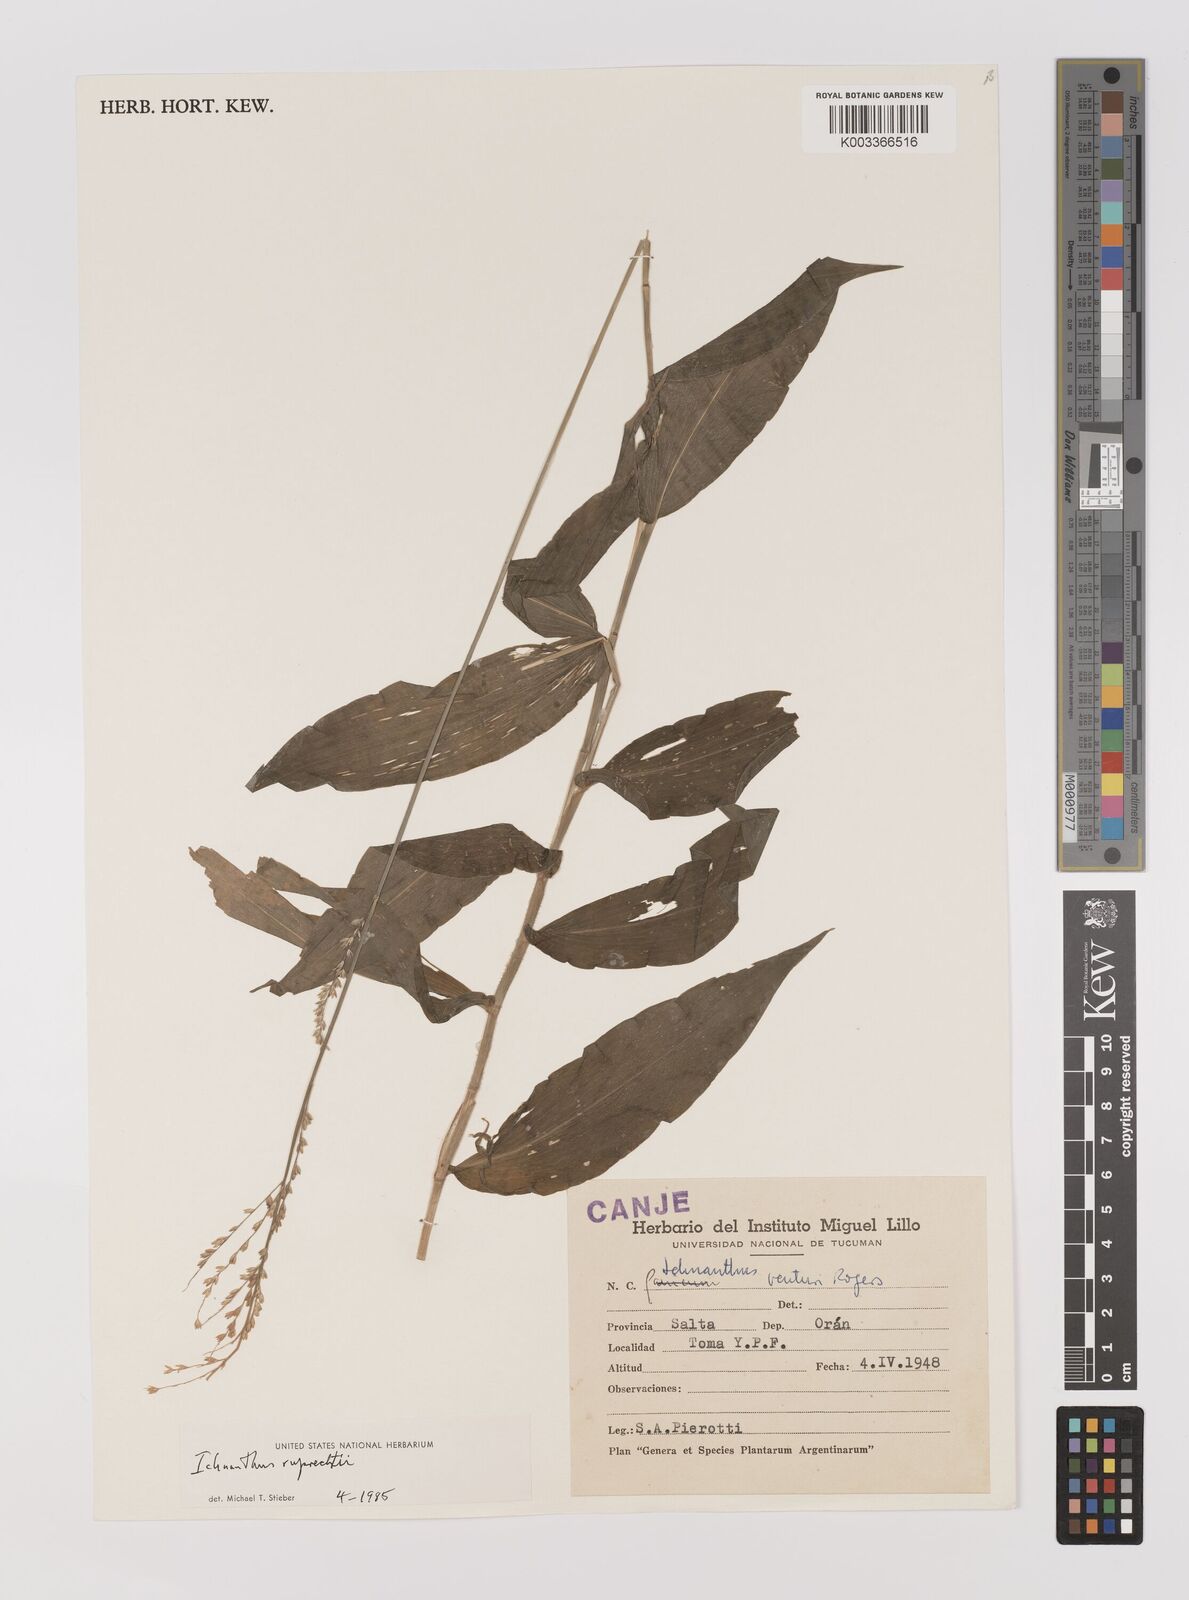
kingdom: Plantae
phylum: Tracheophyta
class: Liliopsida
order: Poales
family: Poaceae
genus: Ichnanthus
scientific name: Ichnanthus ruprechtii
